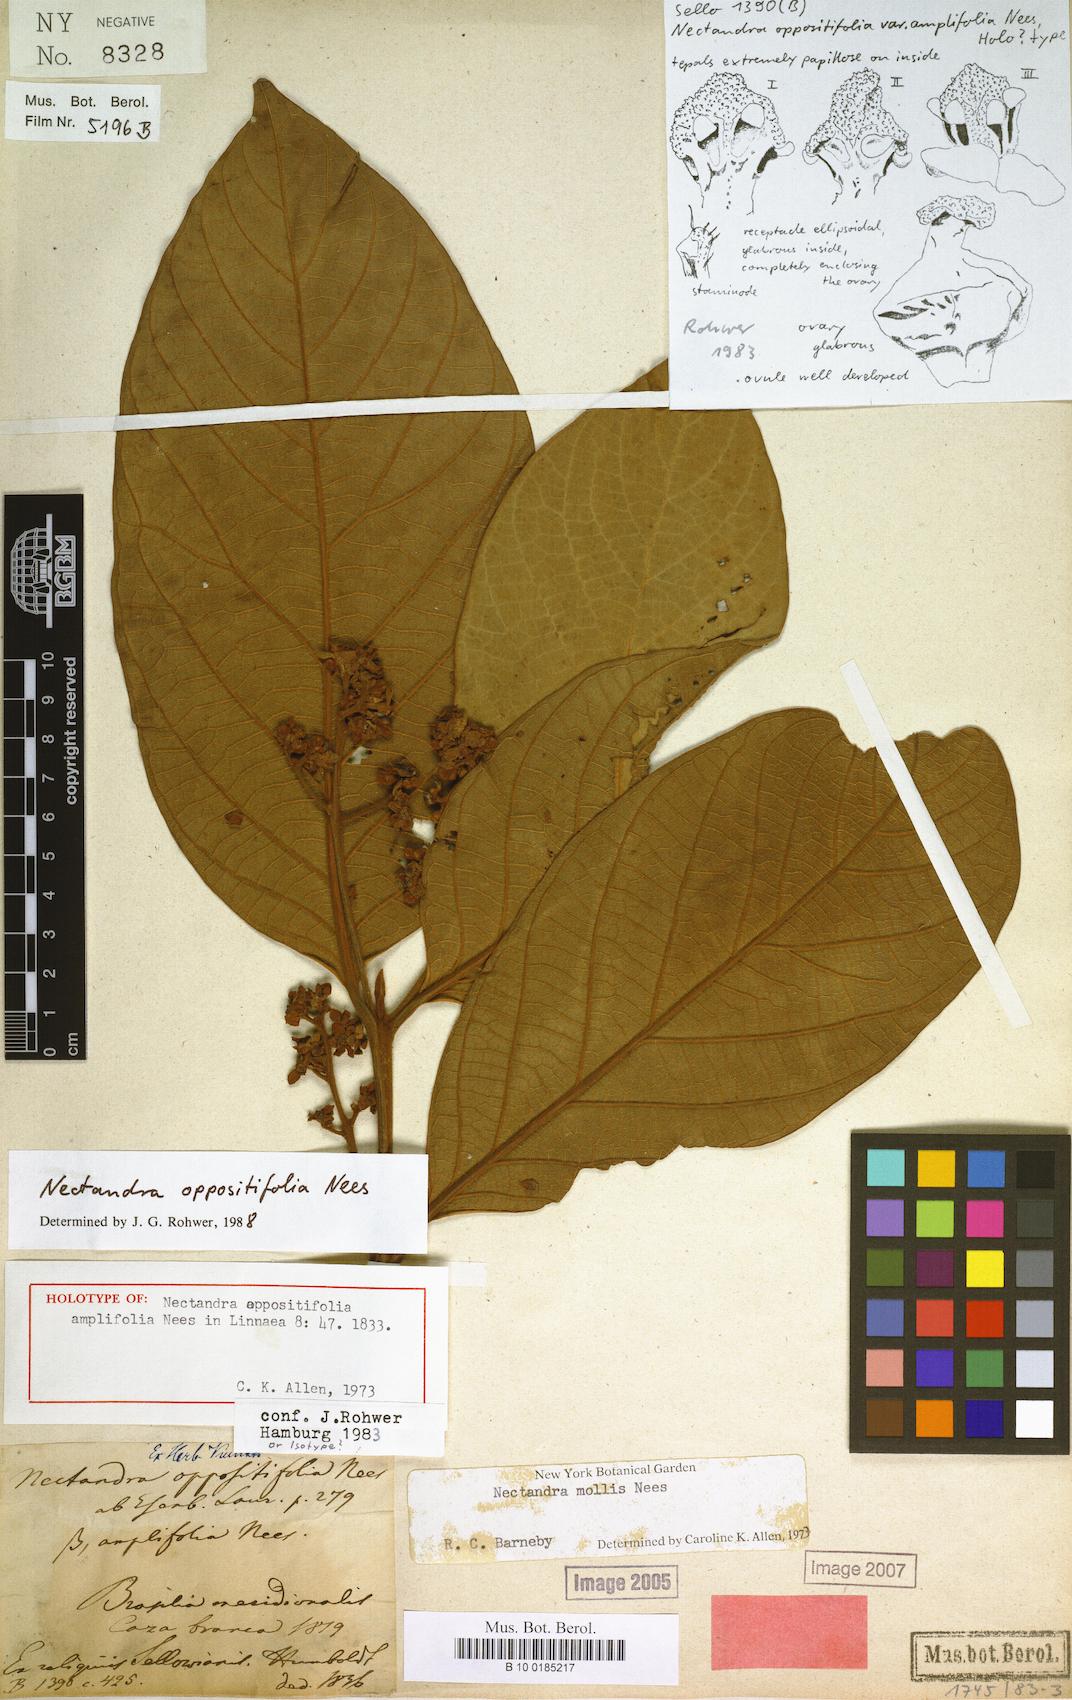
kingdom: Plantae
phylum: Tracheophyta
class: Magnoliopsida
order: Laurales
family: Lauraceae
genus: Nectandra
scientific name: Nectandra oppositifolia
